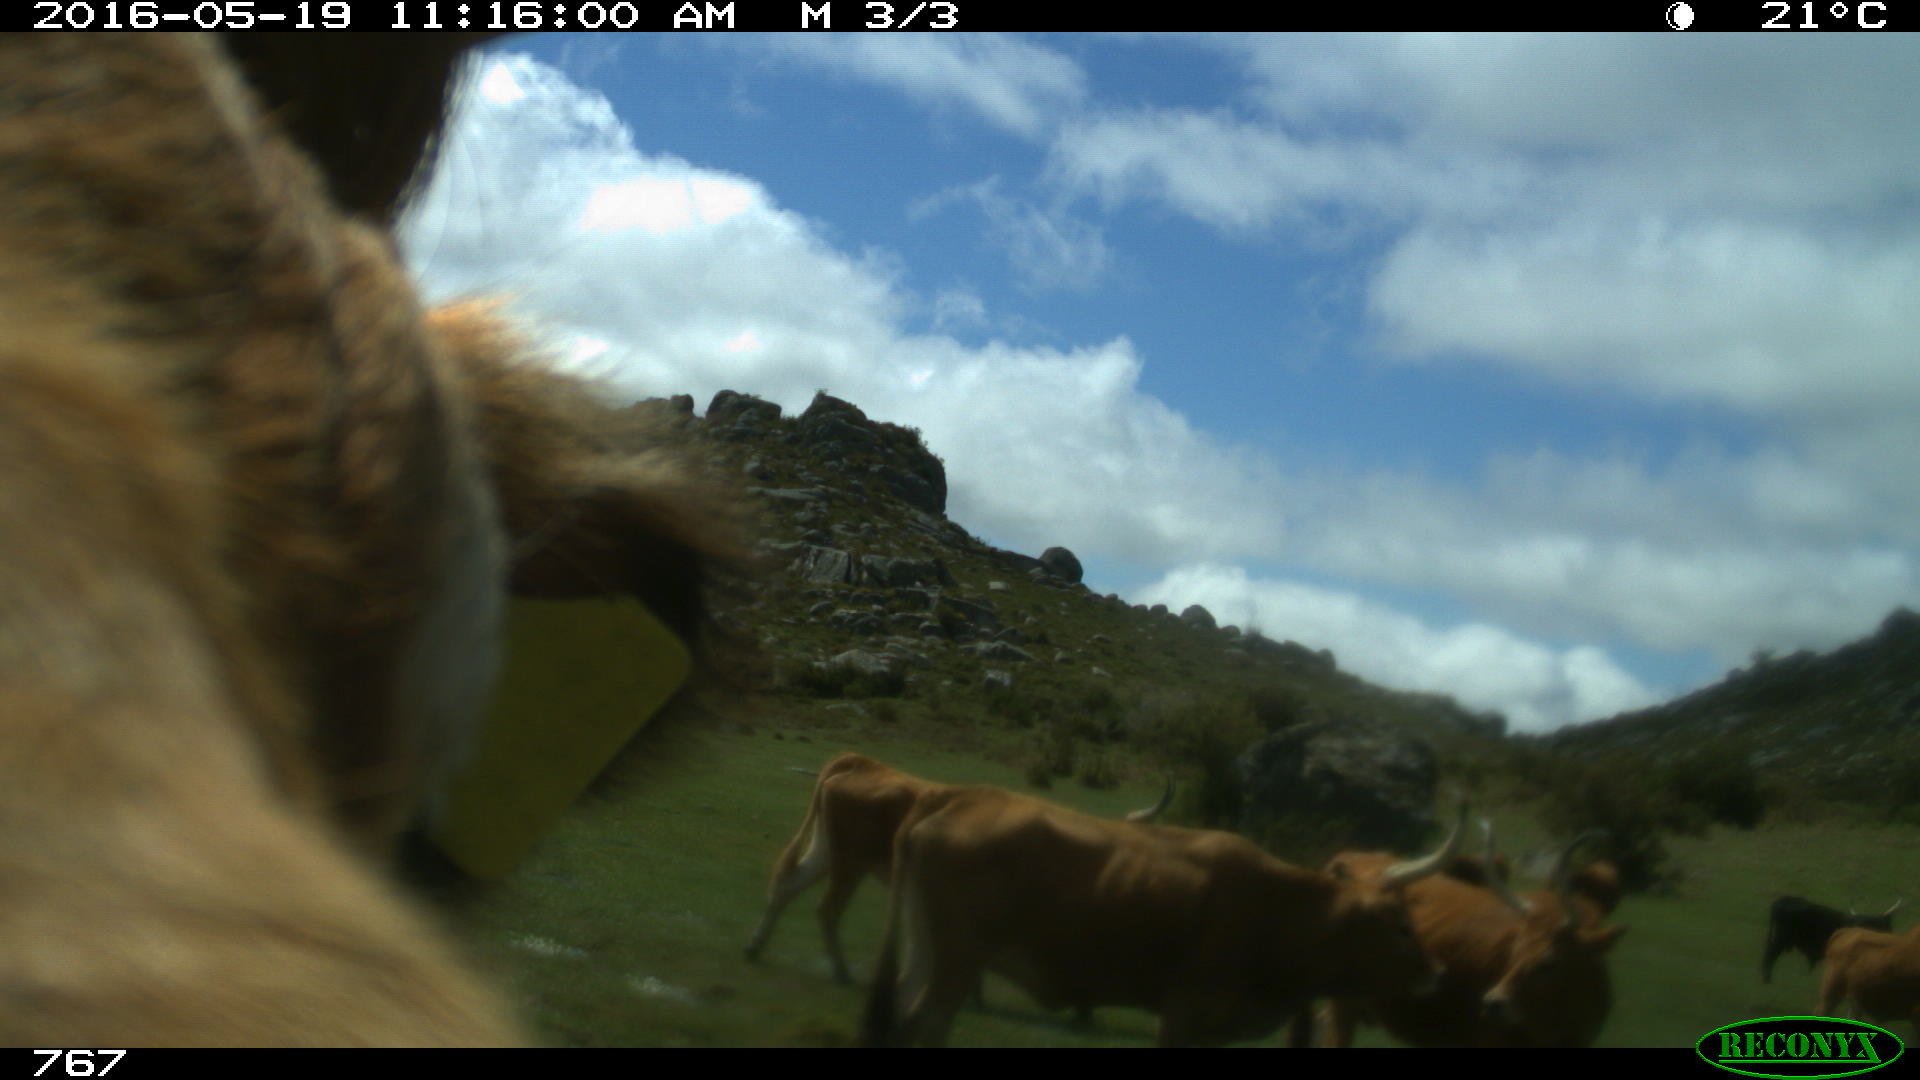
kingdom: Animalia
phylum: Chordata
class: Mammalia
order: Artiodactyla
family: Bovidae
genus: Bos
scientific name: Bos taurus
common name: Domesticated cattle
